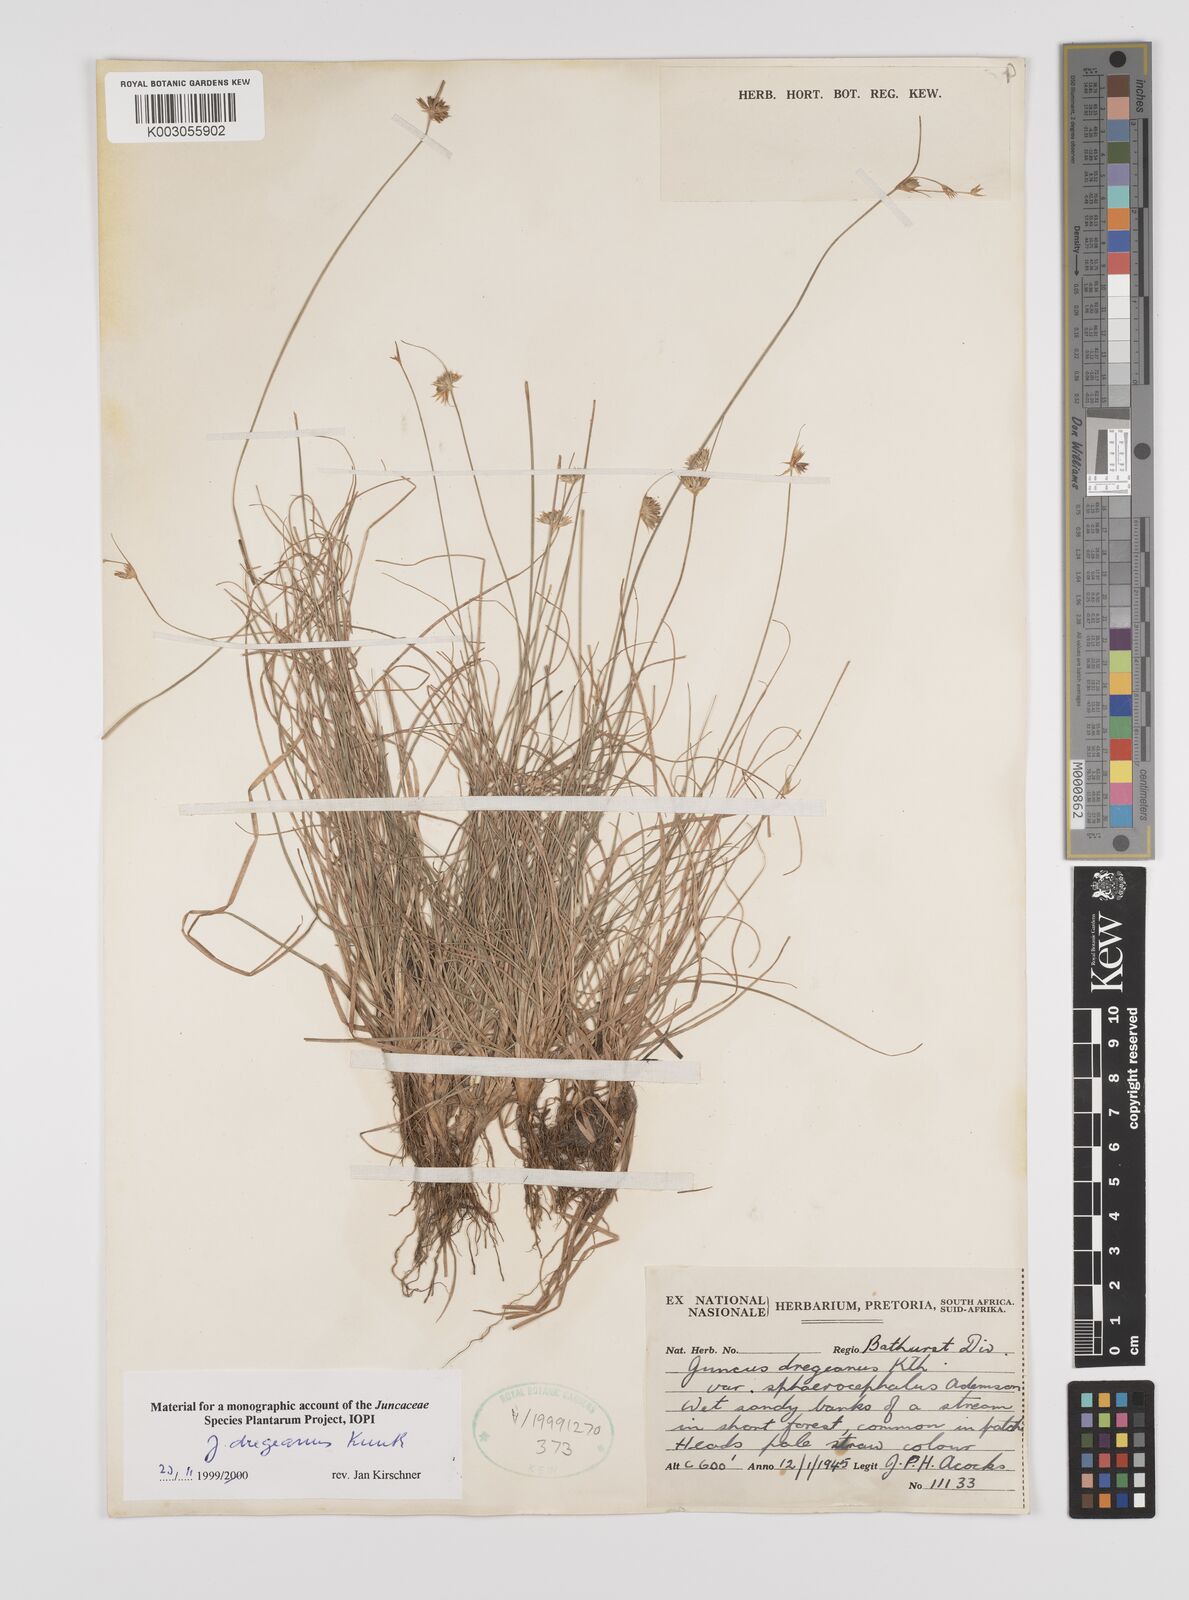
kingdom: Plantae
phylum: Tracheophyta
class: Liliopsida
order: Poales
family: Juncaceae
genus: Juncus
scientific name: Juncus dregeanus
